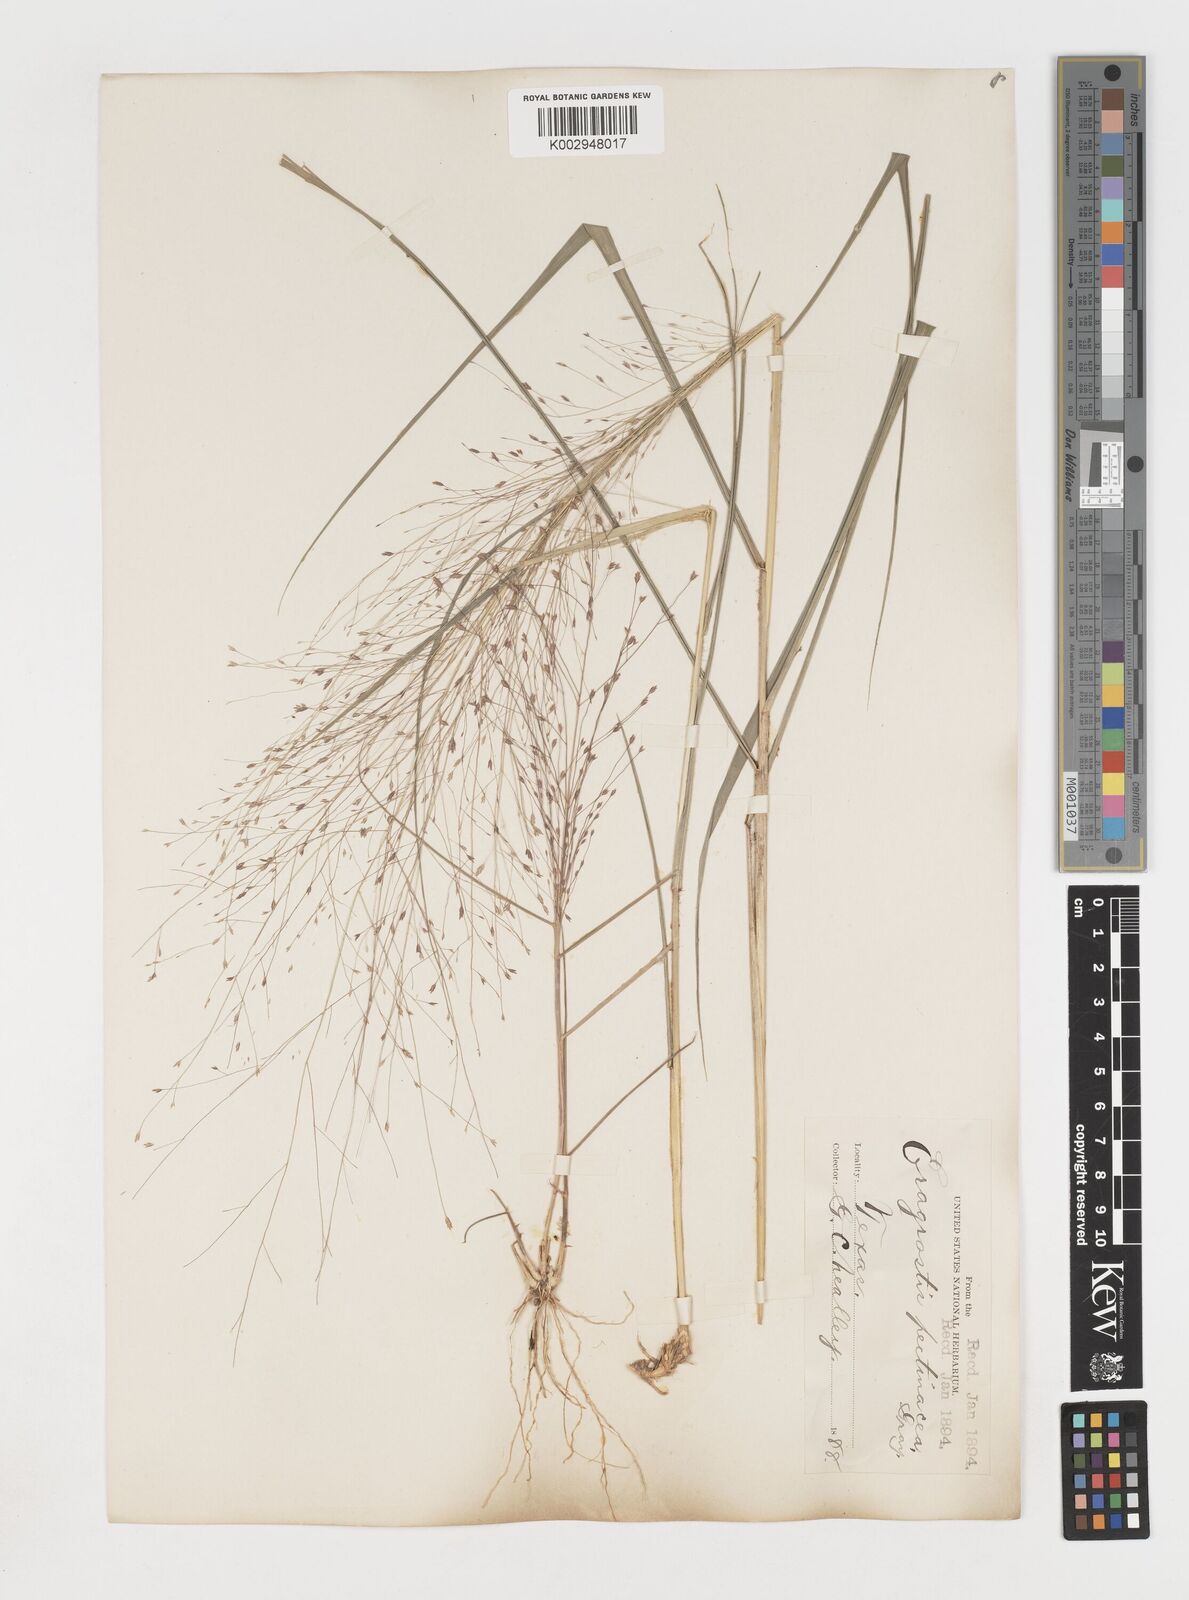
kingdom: Plantae
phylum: Tracheophyta
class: Liliopsida
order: Poales
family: Poaceae
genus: Eragrostis
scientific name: Eragrostis spectabilis
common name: Petticoat-climber
